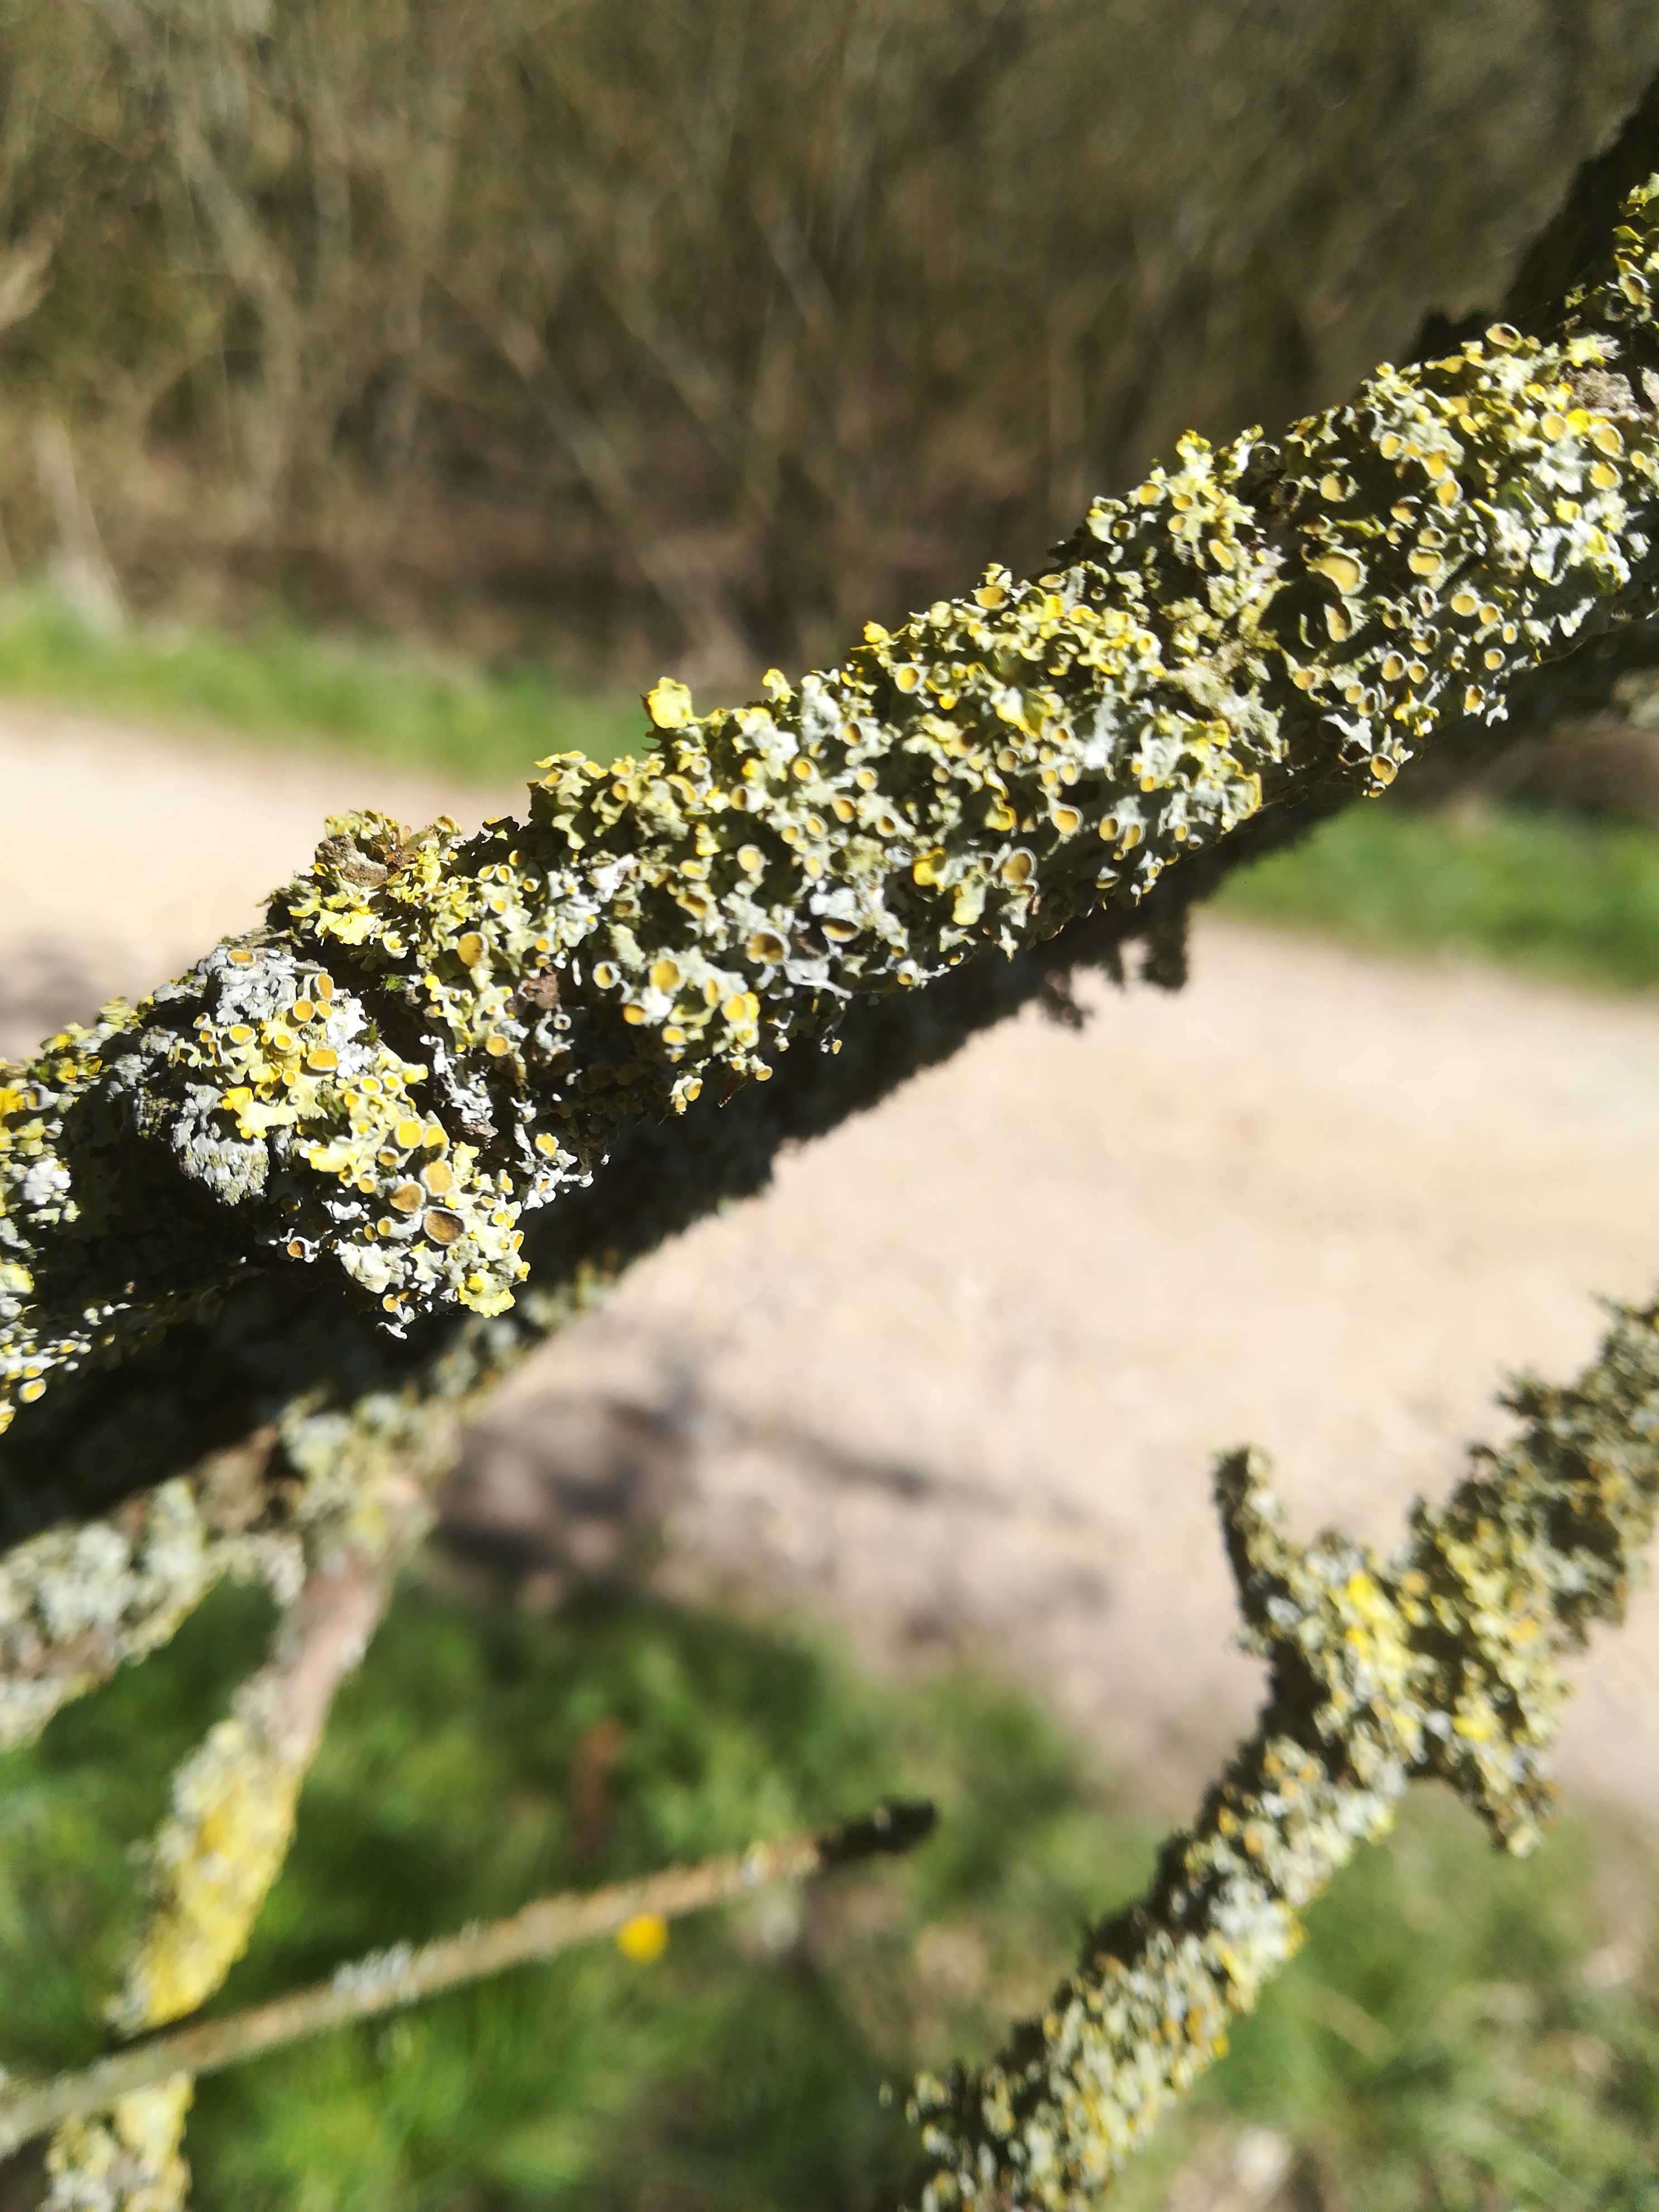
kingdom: Fungi
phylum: Ascomycota
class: Lecanoromycetes
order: Teloschistales
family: Teloschistaceae
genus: Xanthoria
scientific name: Xanthoria parietina
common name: almindelig væggelav
